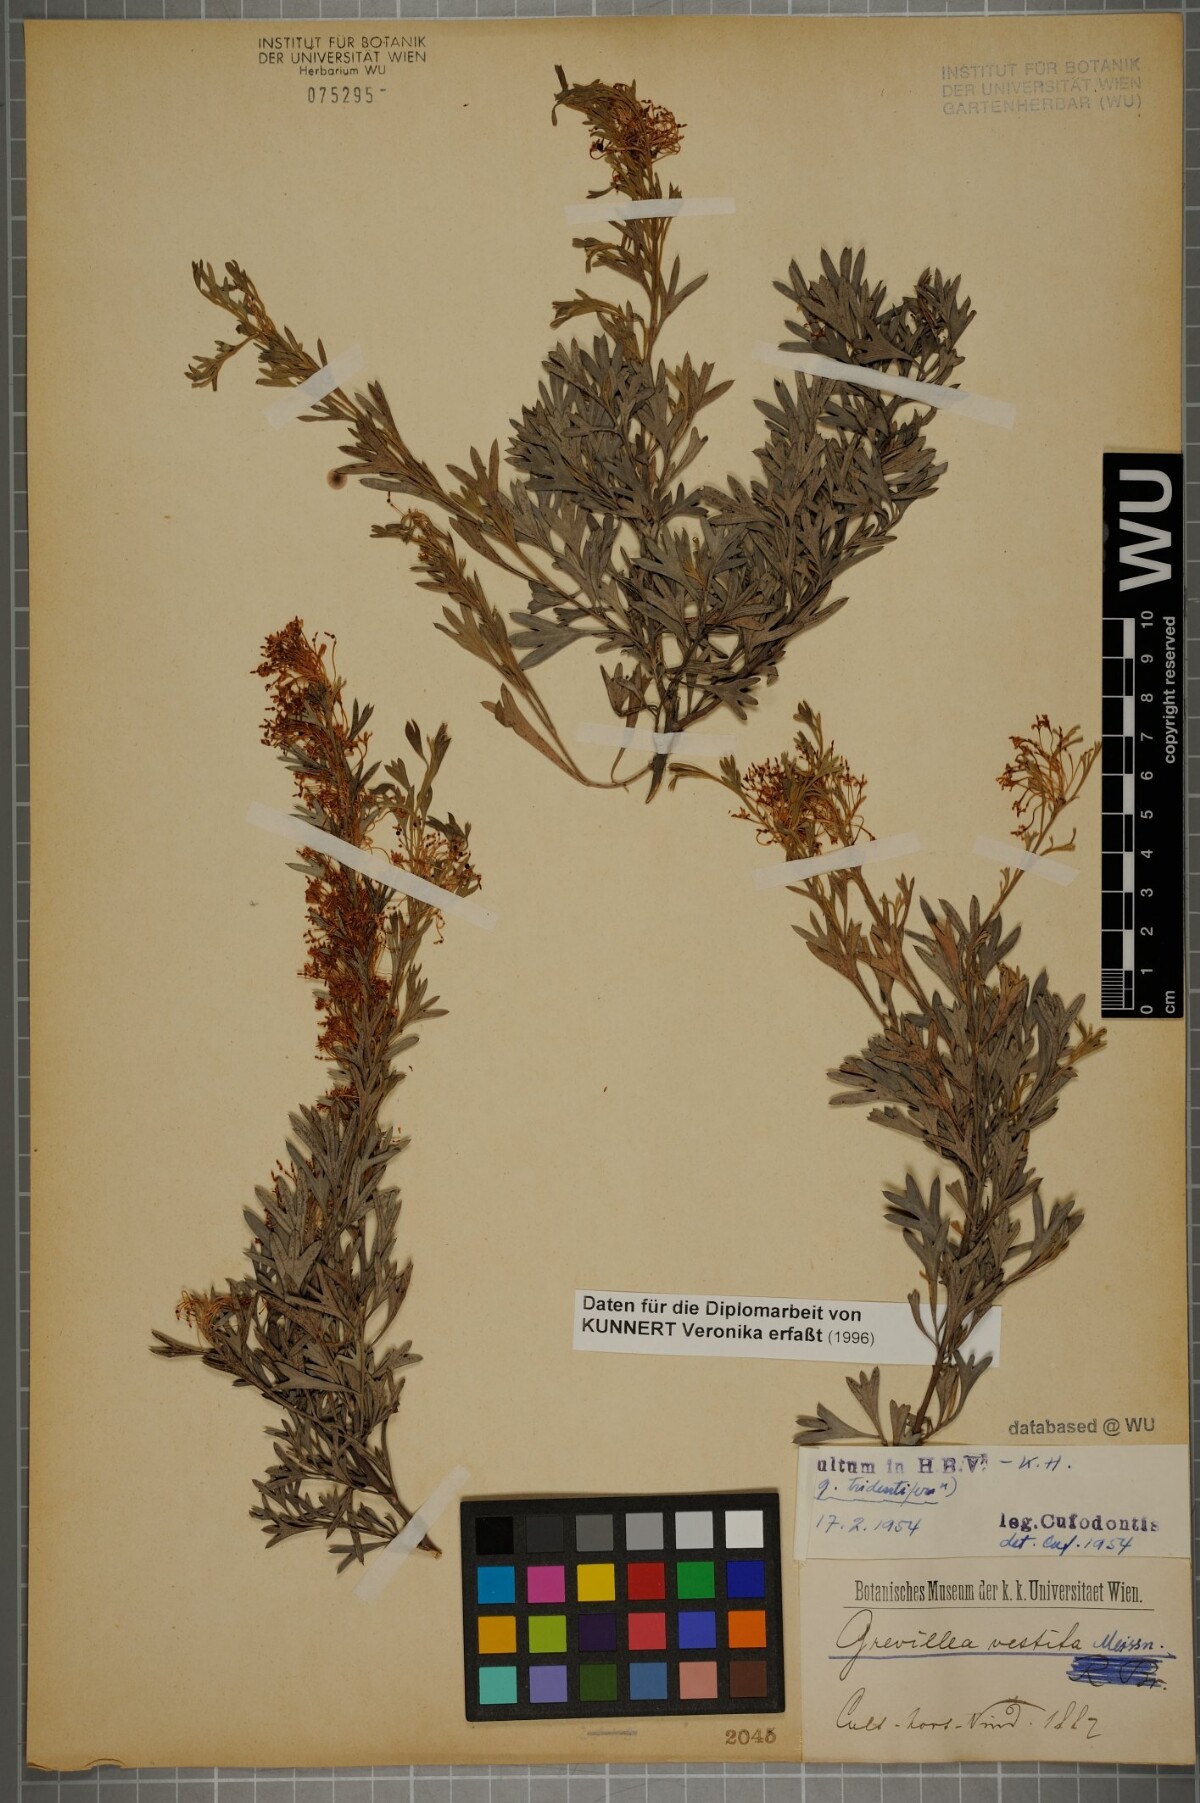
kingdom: Plantae
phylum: Tracheophyta
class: Magnoliopsida
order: Proteales
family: Proteaceae
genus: Grevillea
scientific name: Grevillea Manglesia tridentifera
